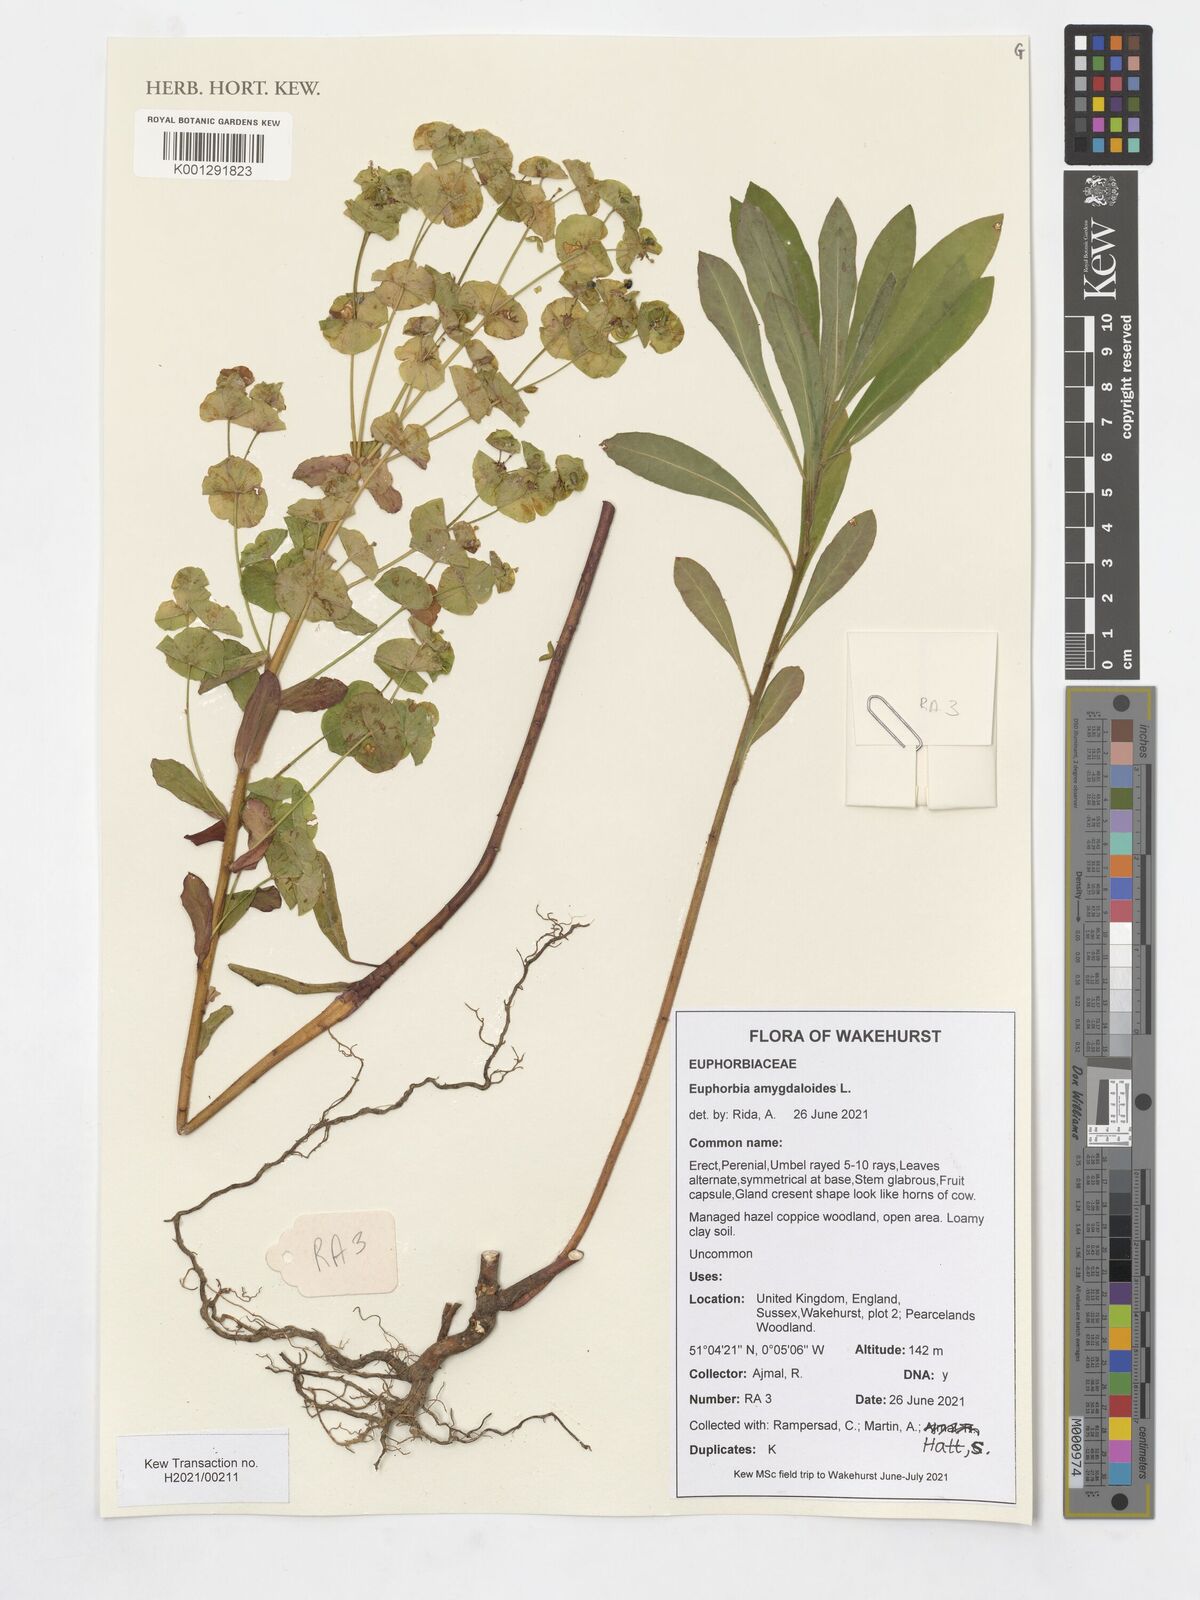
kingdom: Plantae
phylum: Tracheophyta
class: Magnoliopsida
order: Malpighiales
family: Euphorbiaceae
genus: Euphorbia
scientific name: Euphorbia amygdaloides
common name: Wood spurge
